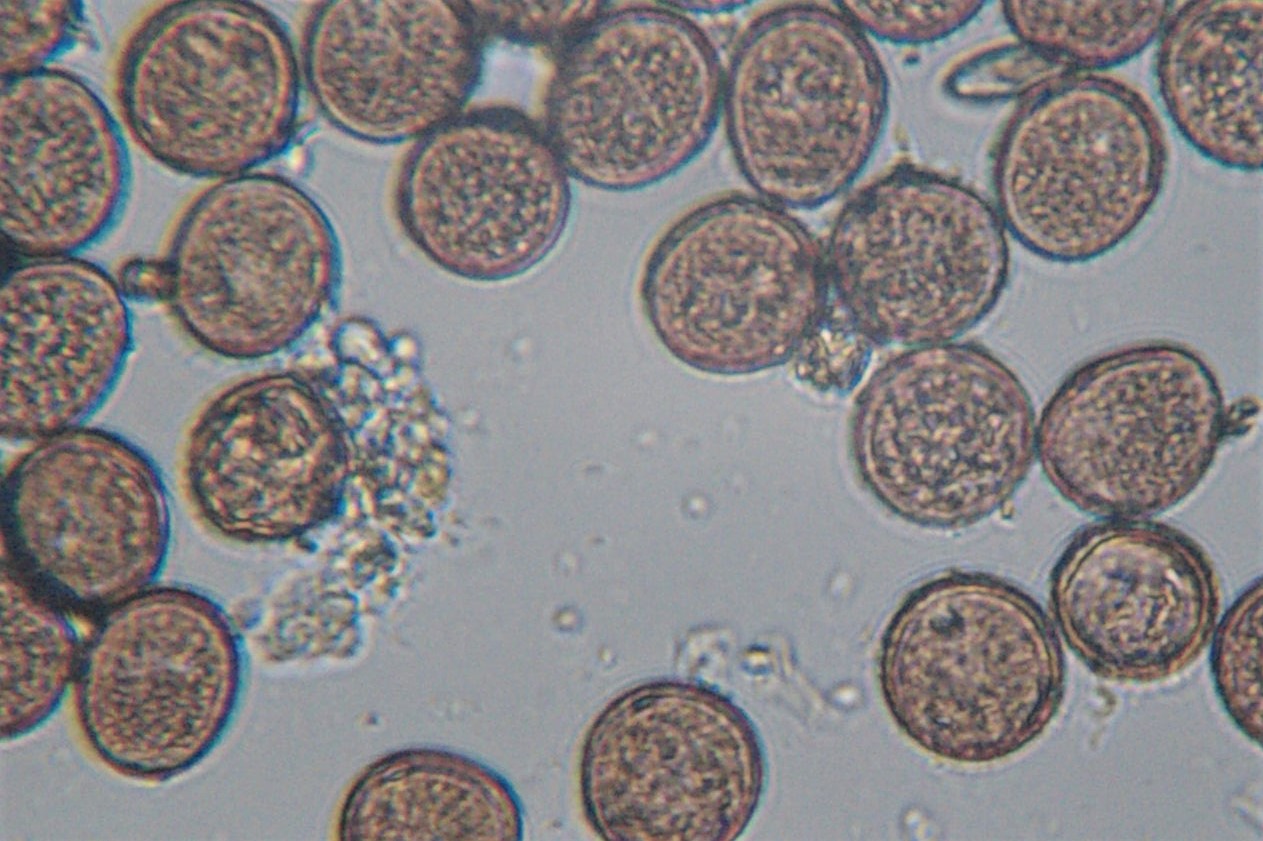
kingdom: Fungi
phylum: Basidiomycota
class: Pucciniomycetes
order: Pucciniales
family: Pucciniaceae
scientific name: Pucciniaceae
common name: rustsvampfamilien
